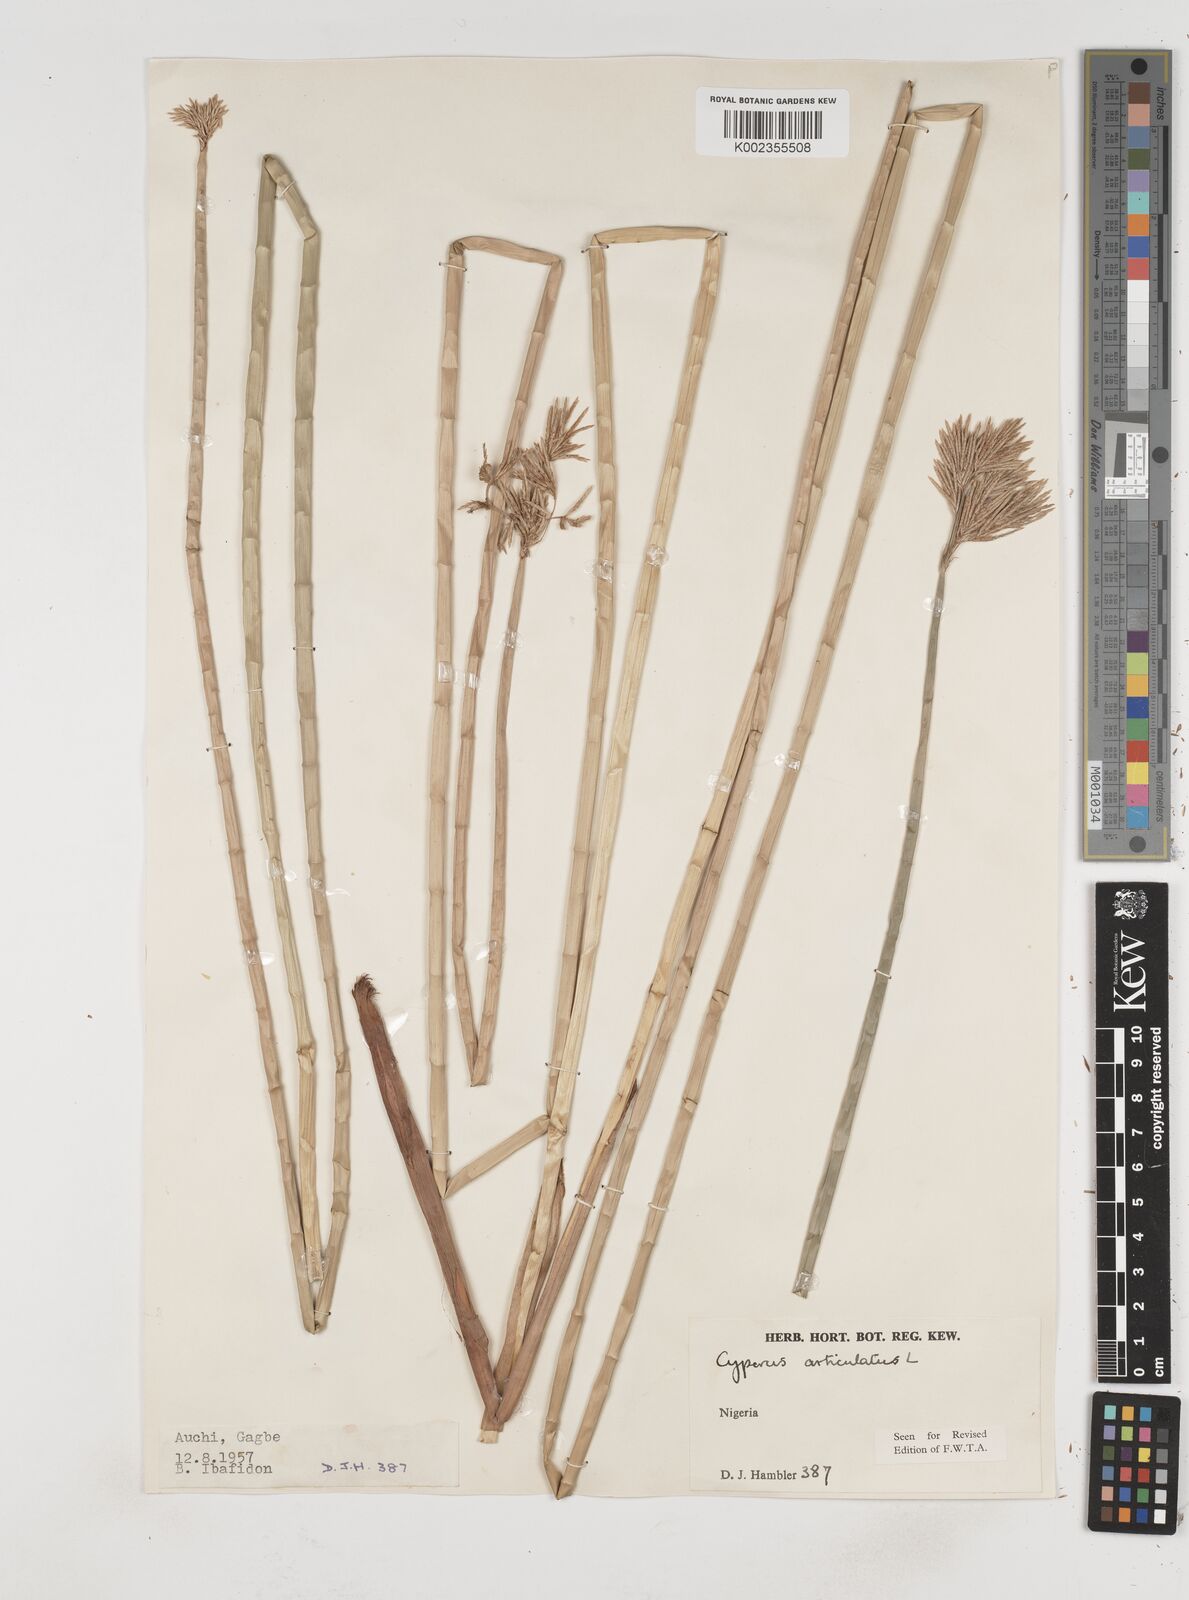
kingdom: Plantae
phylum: Tracheophyta
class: Liliopsida
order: Poales
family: Cyperaceae
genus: Cyperus
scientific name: Cyperus articulatus
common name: Jointed flatsedge
